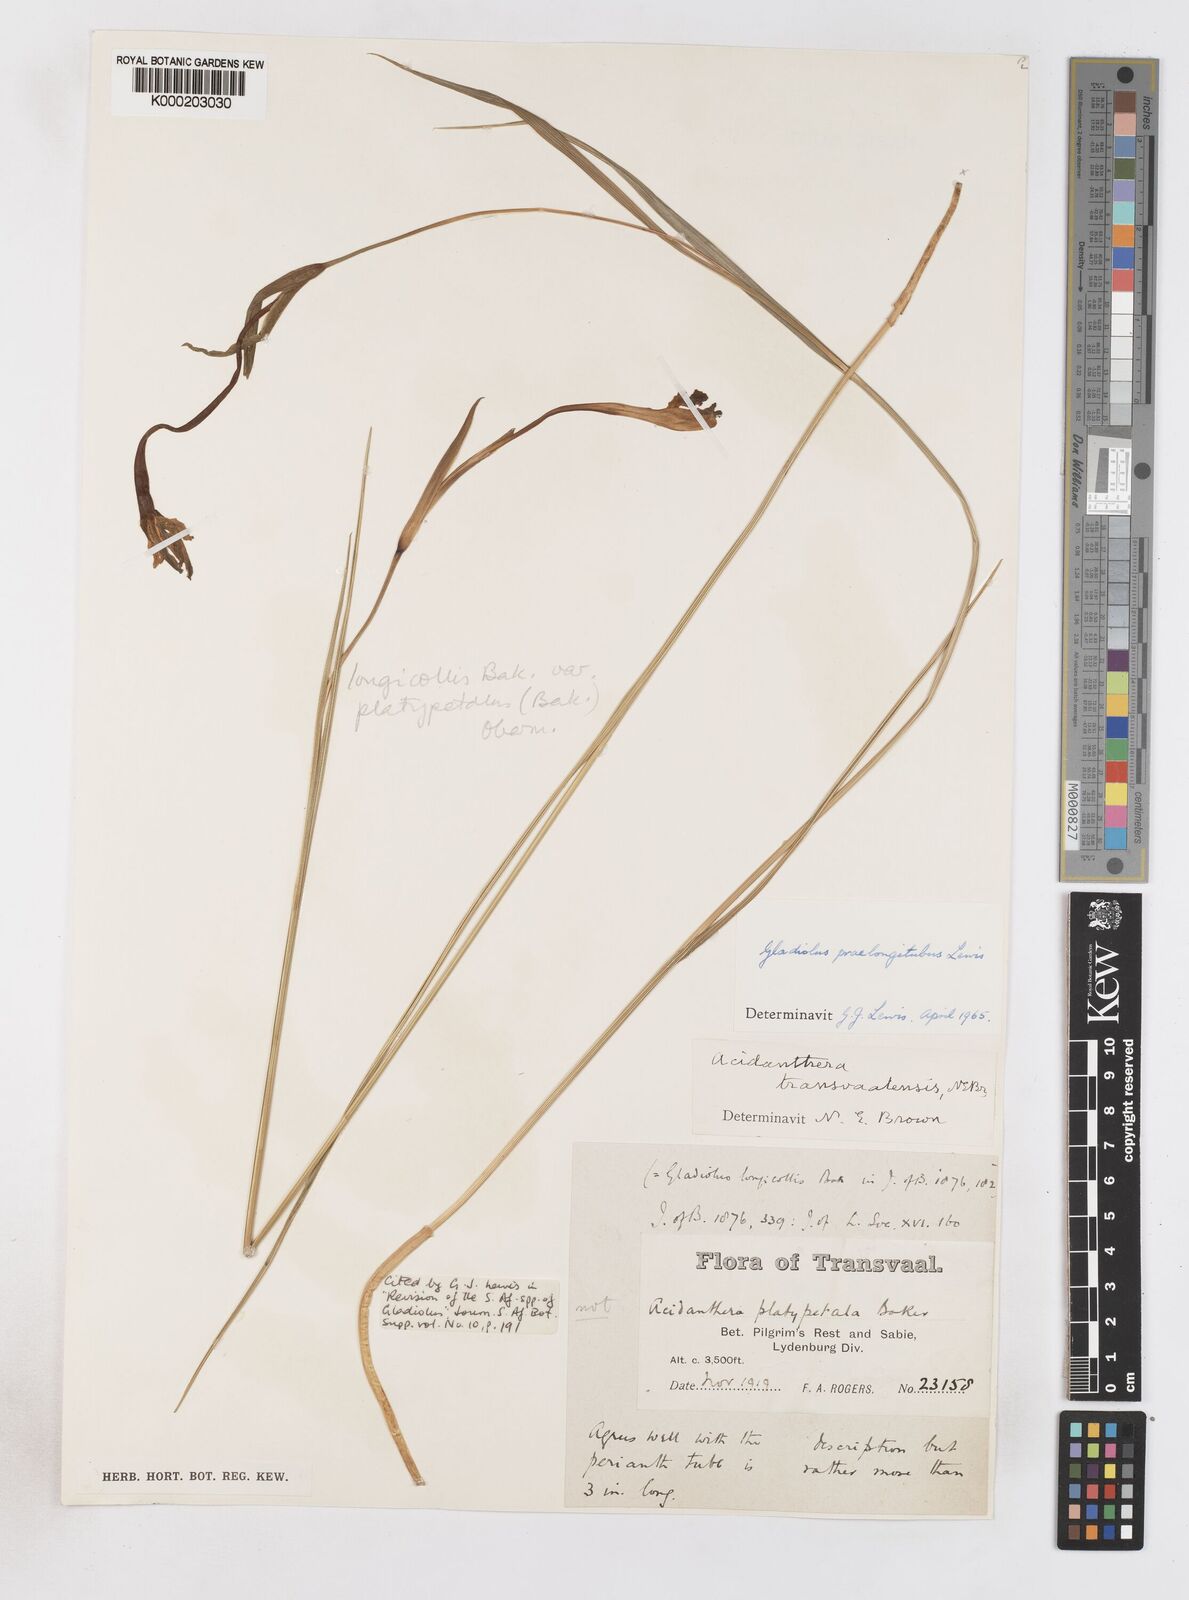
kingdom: Plantae
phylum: Tracheophyta
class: Liliopsida
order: Asparagales
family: Iridaceae
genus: Gladiolus
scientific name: Gladiolus longicollis
